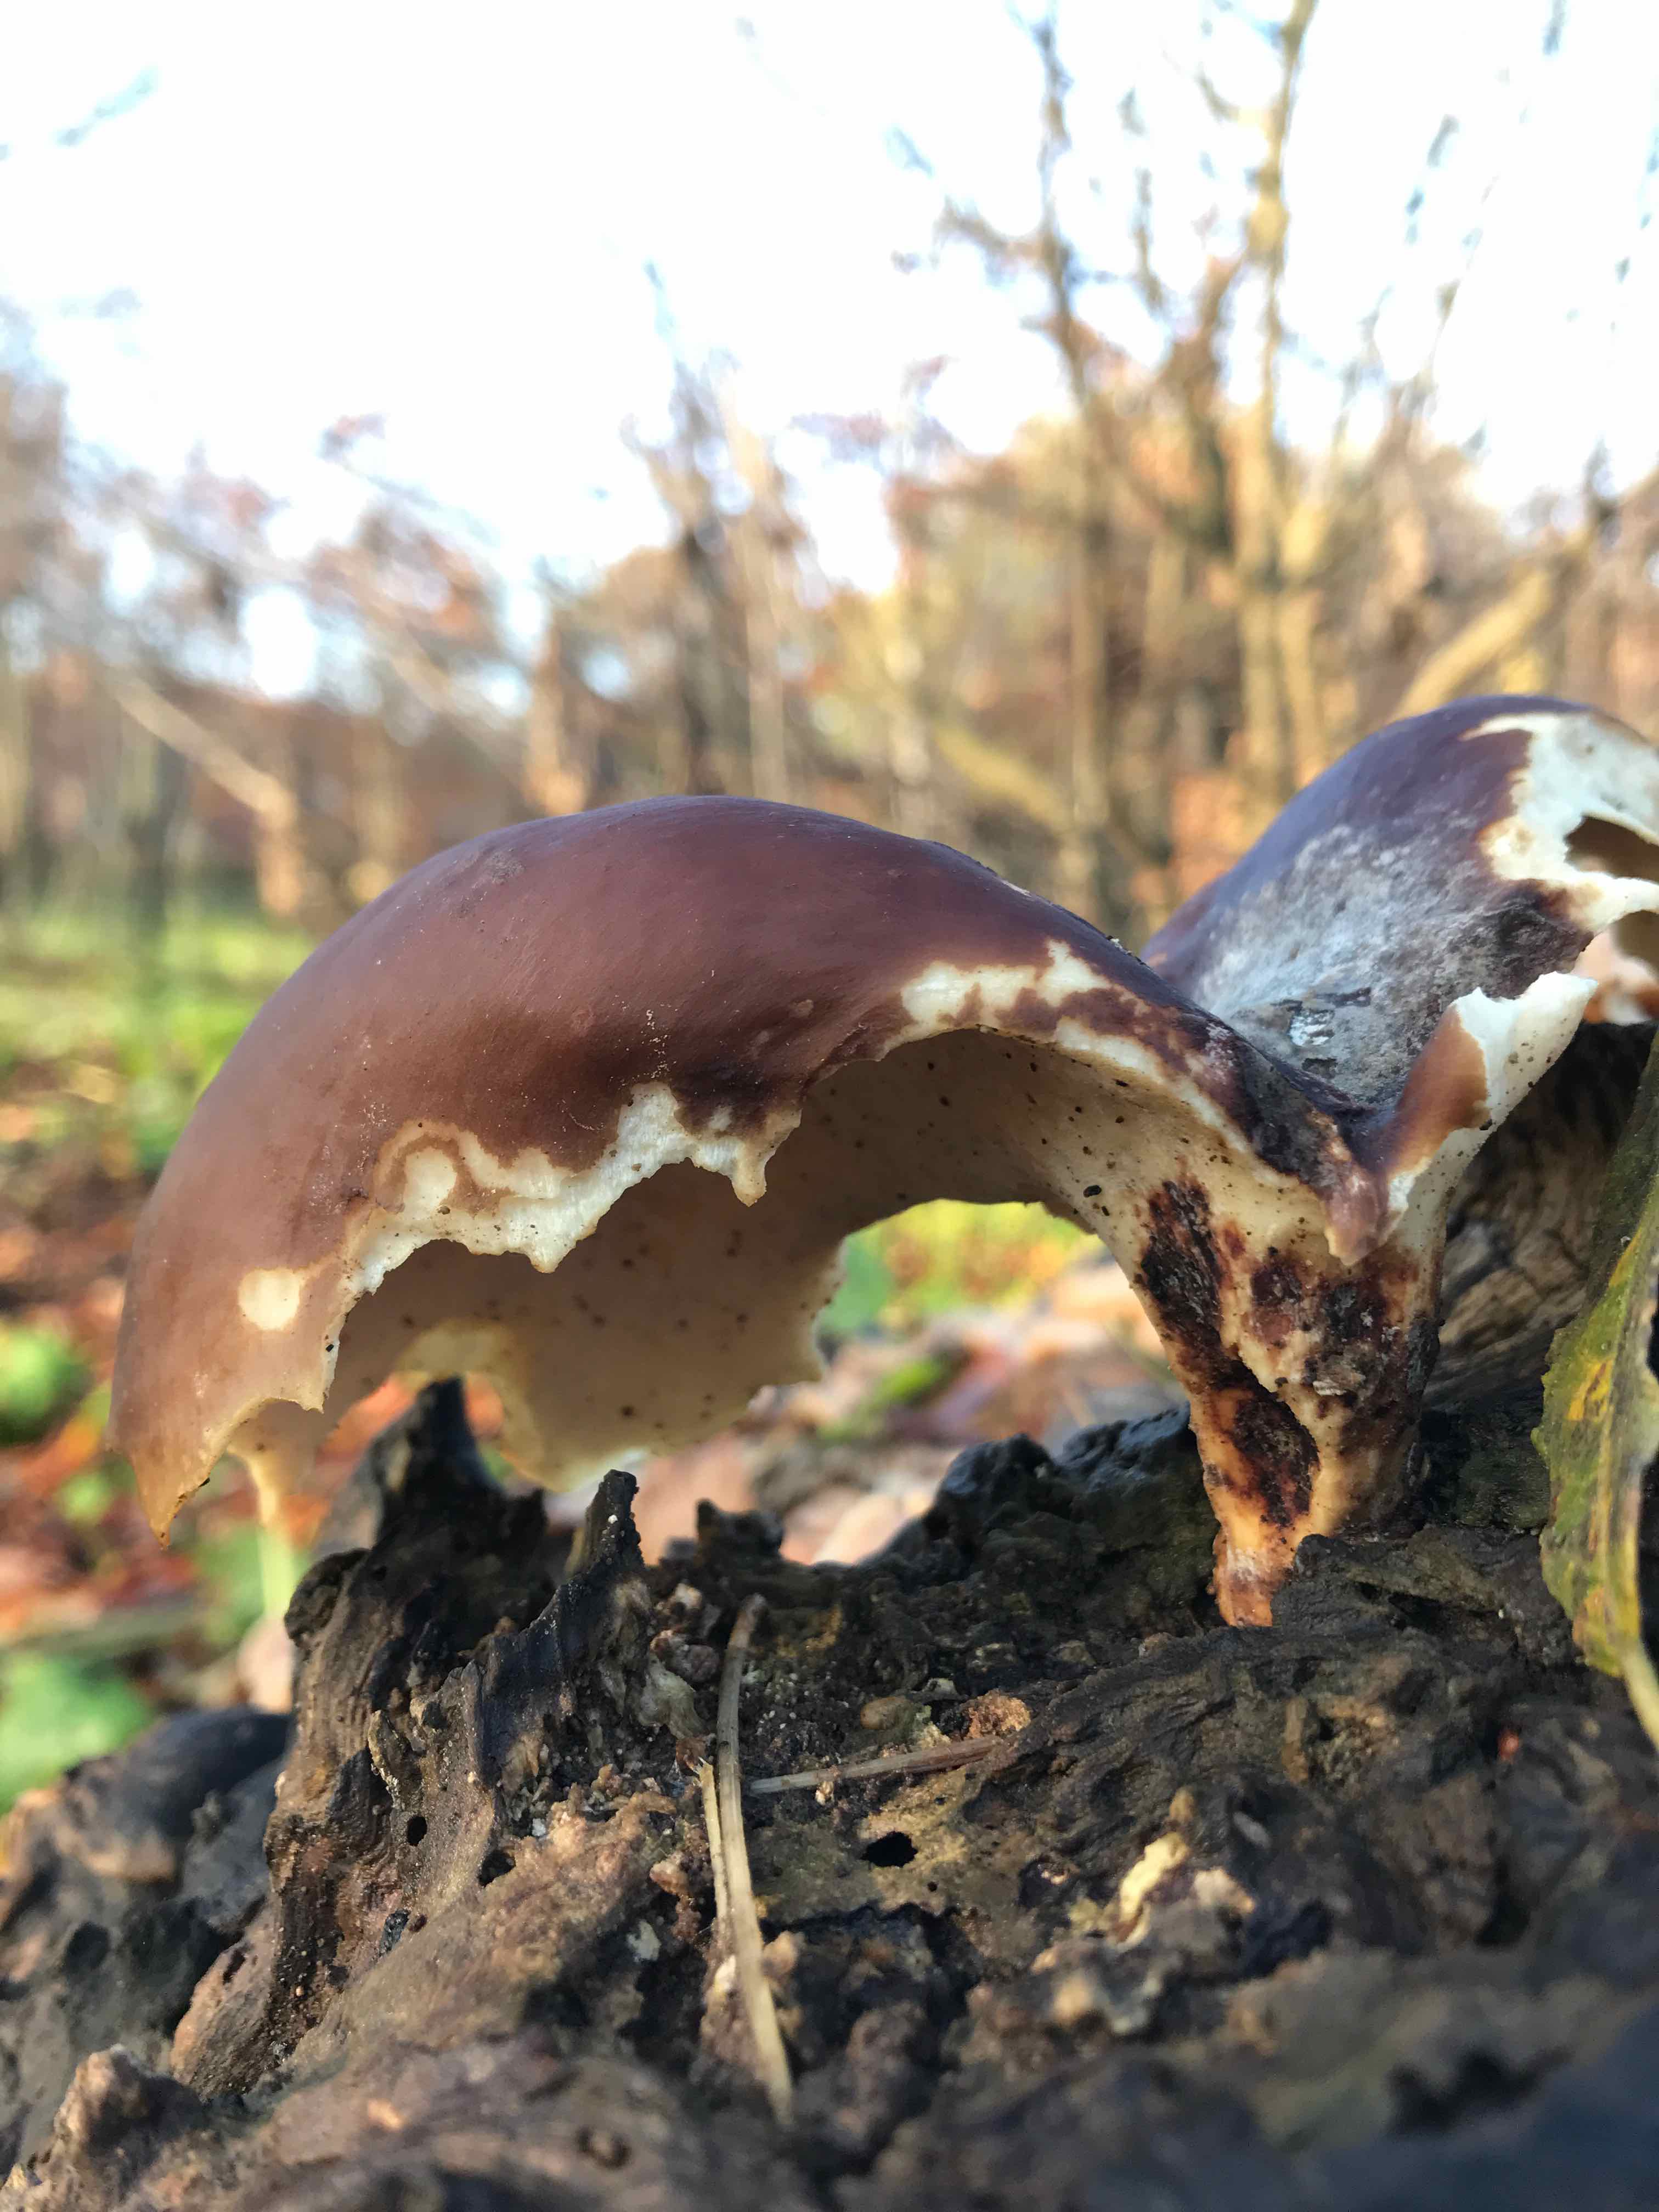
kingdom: Fungi
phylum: Basidiomycota
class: Agaricomycetes
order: Polyporales
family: Polyporaceae
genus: Picipes
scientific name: Picipes badius
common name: kastaniebrun stilkporesvamp
